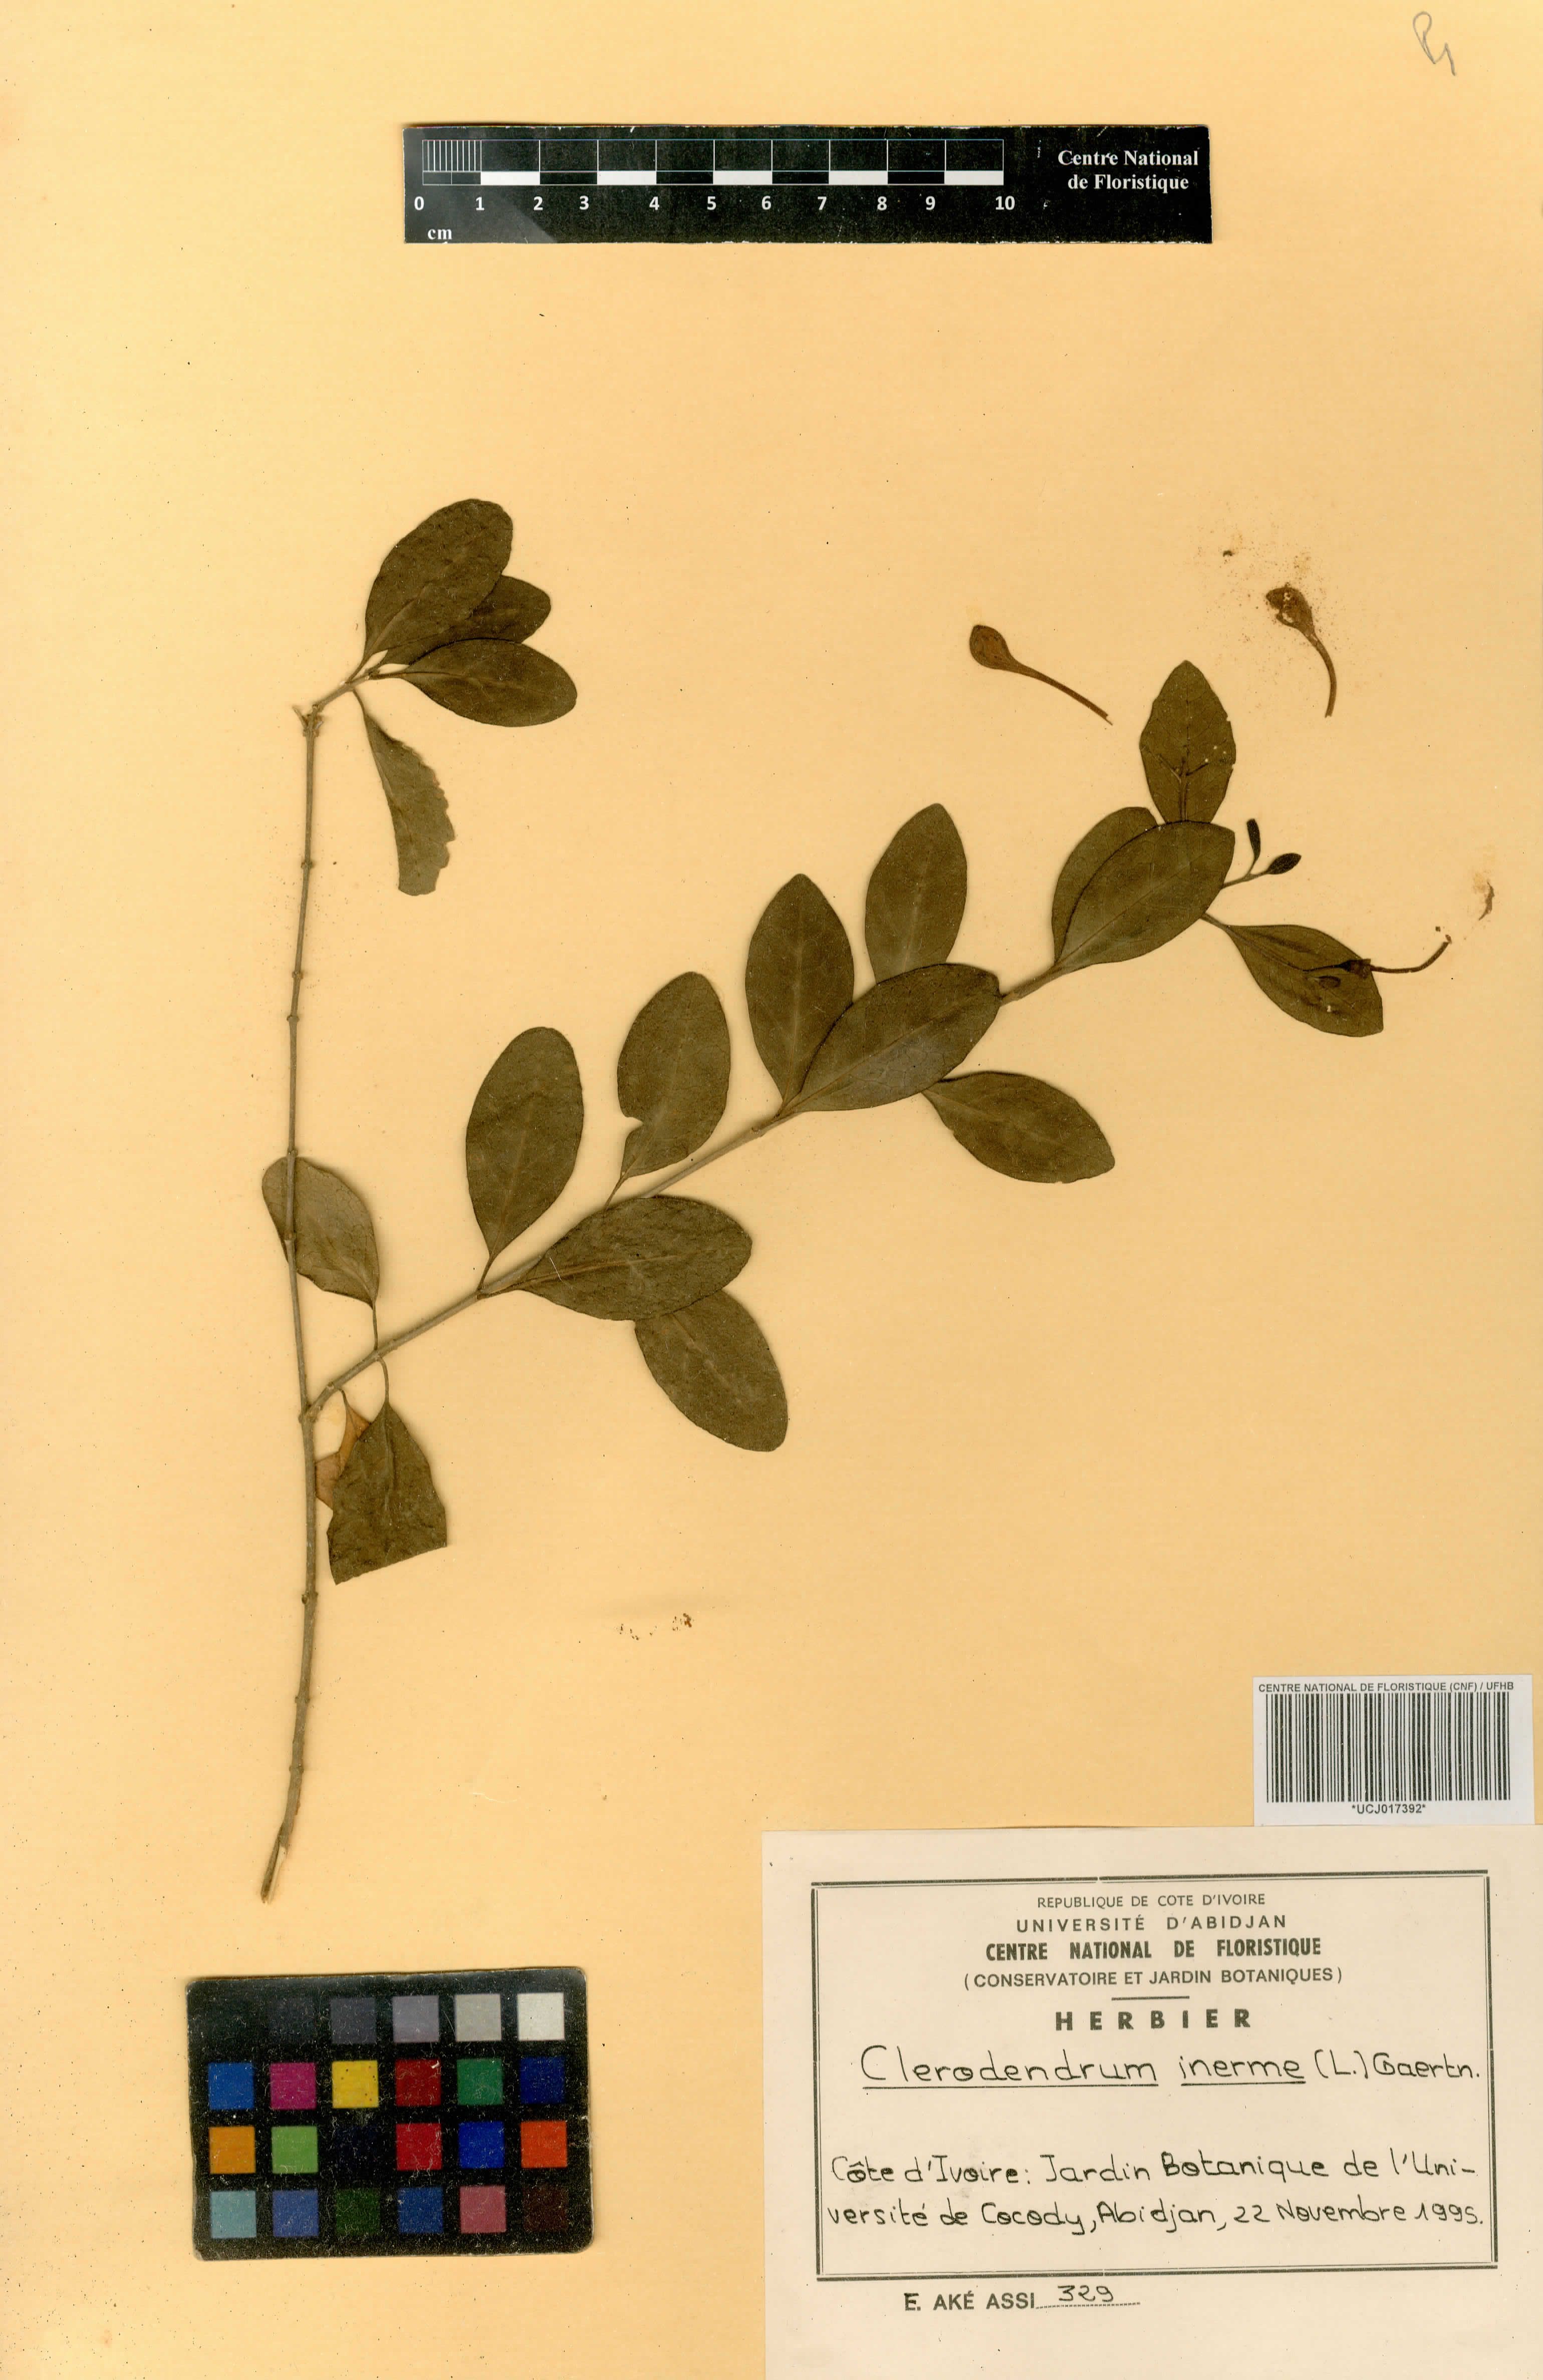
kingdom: Plantae
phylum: Tracheophyta
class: Magnoliopsida
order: Lamiales
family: Lamiaceae
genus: Volkameria
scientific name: Volkameria inermis
